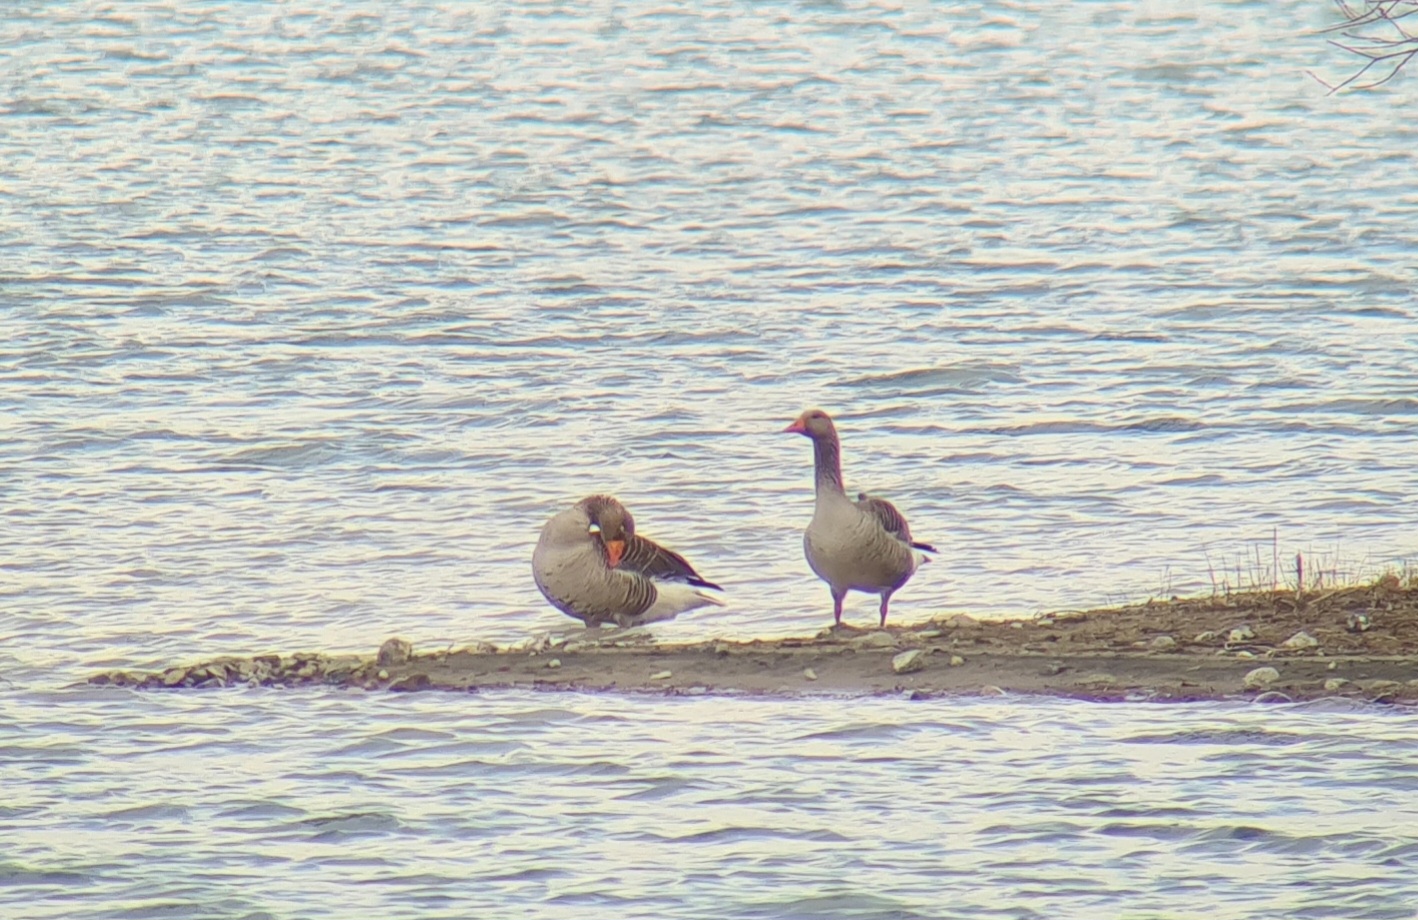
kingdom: Animalia
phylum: Chordata
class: Aves
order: Anseriformes
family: Anatidae
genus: Anser
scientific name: Anser anser
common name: Grågås
